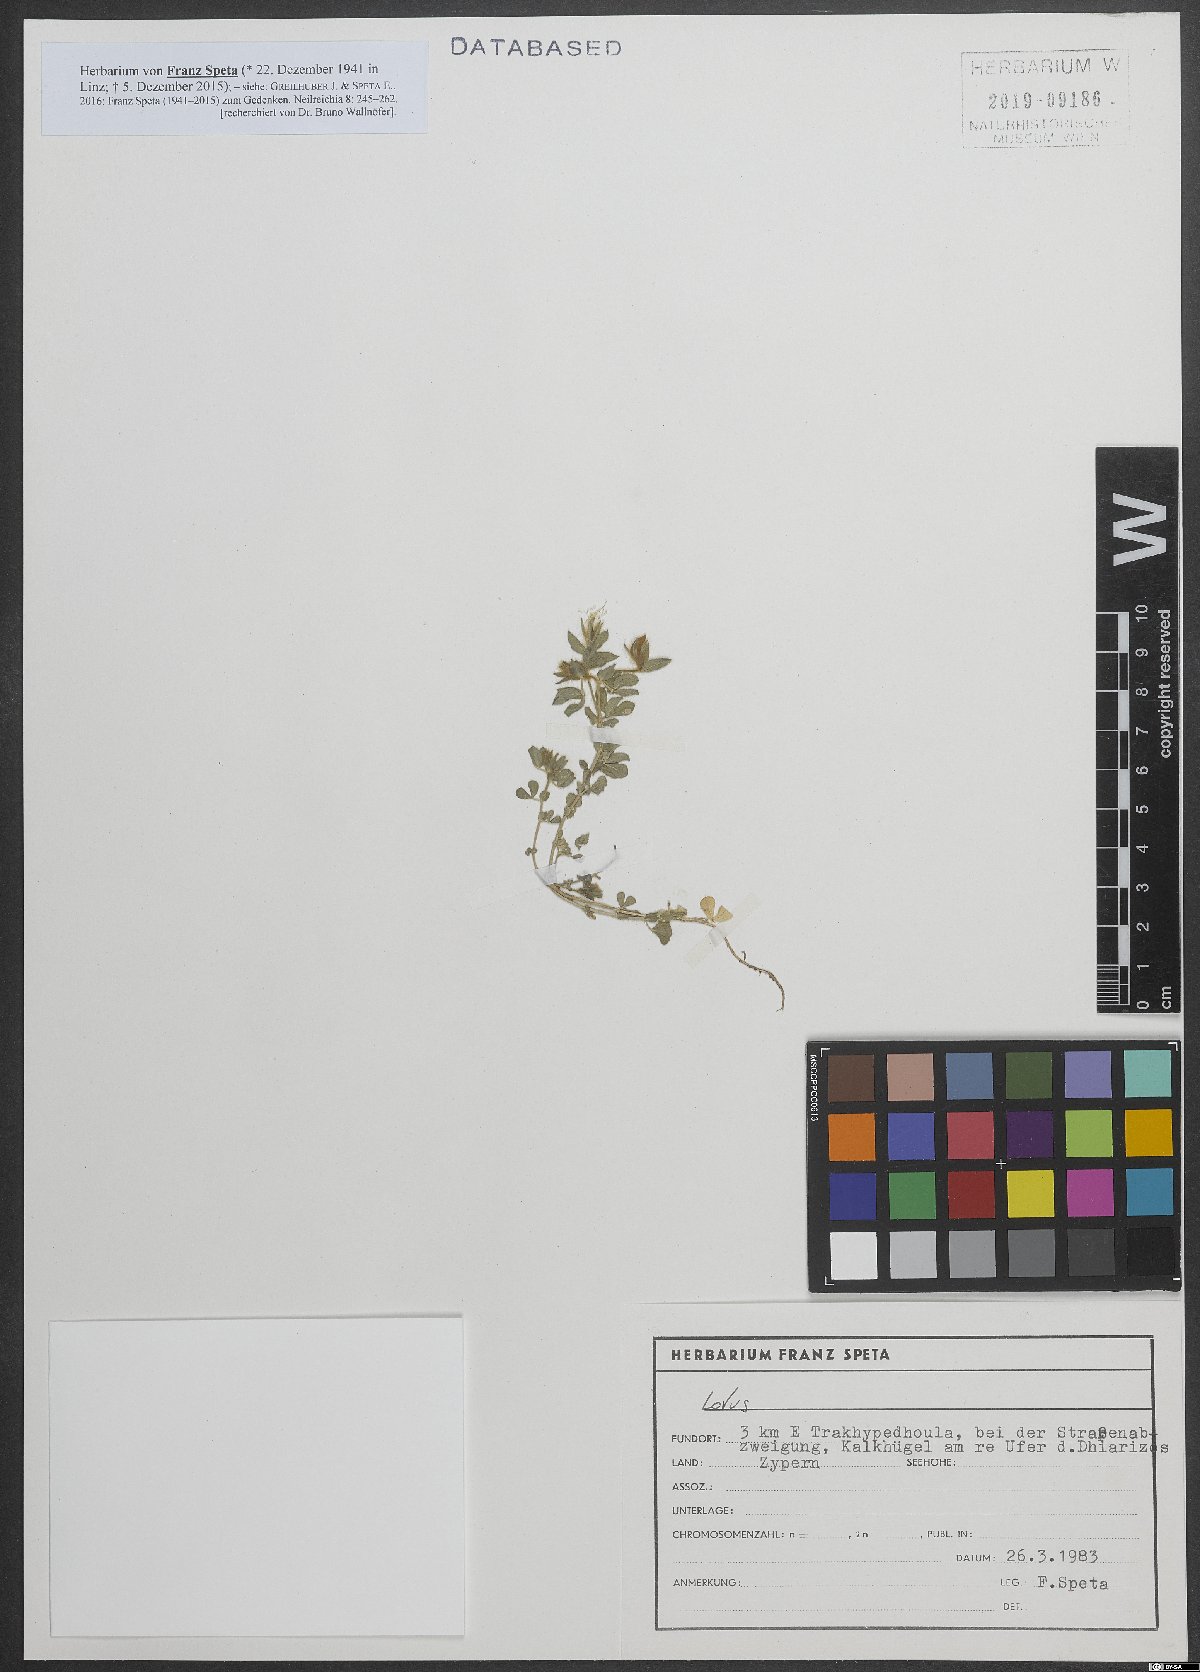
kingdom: Plantae
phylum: Tracheophyta
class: Magnoliopsida
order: Fabales
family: Fabaceae
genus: Lotus
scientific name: Lotus
